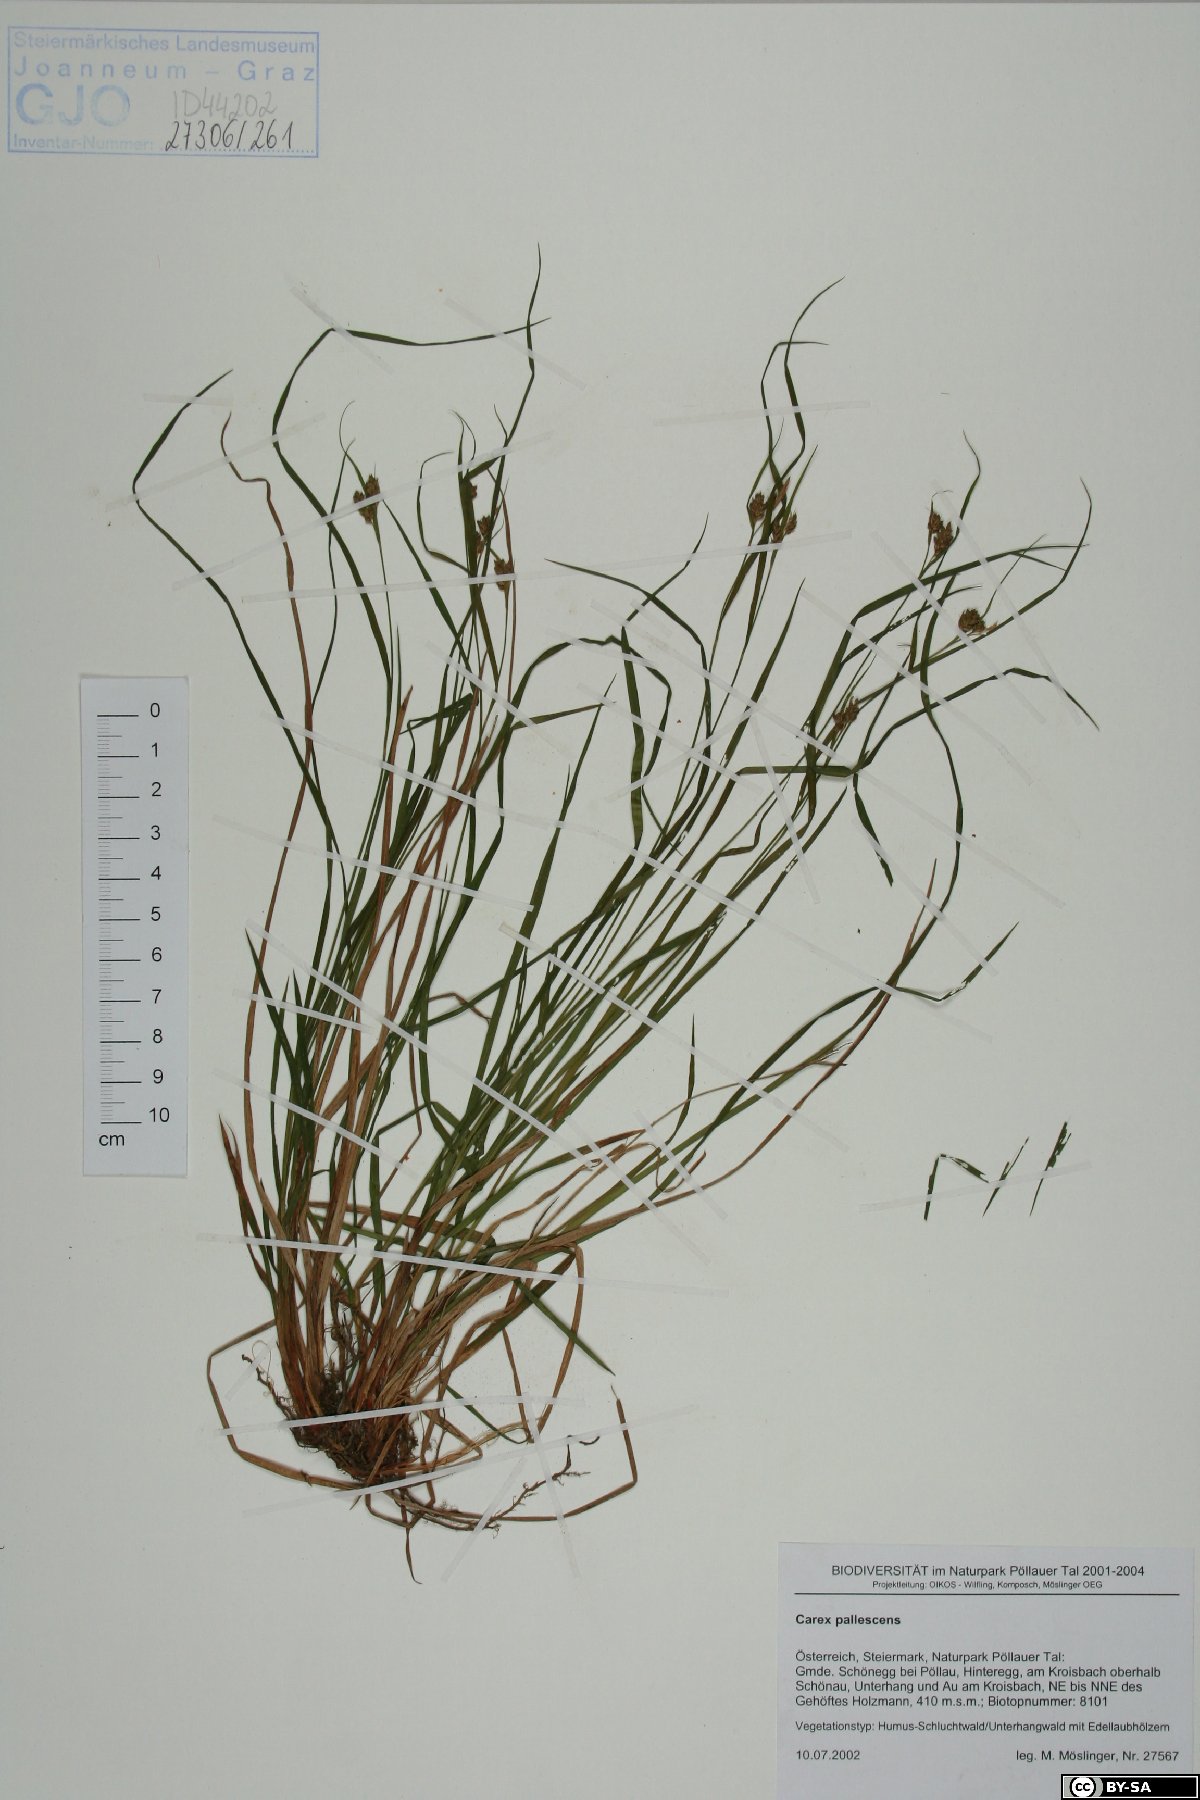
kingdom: Plantae
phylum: Tracheophyta
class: Liliopsida
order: Poales
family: Cyperaceae
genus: Carex
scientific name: Carex pallescens
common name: Pale sedge
